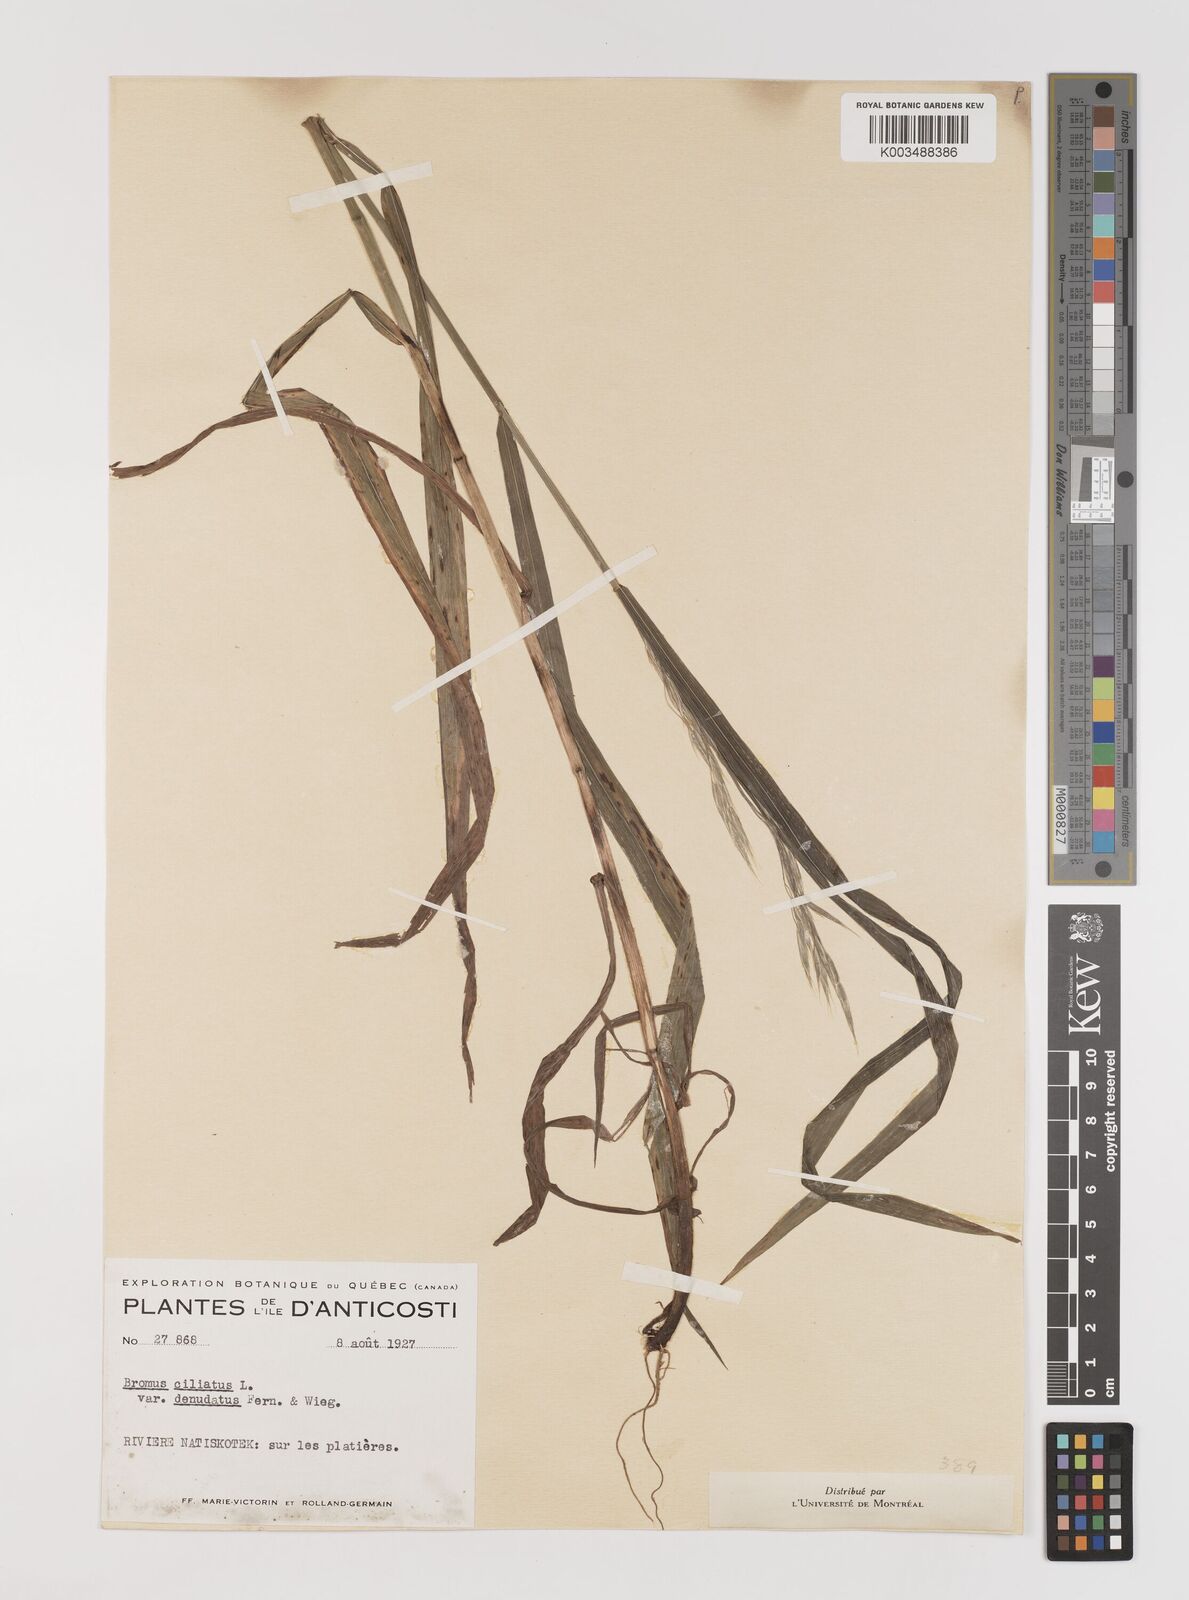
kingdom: Plantae
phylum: Tracheophyta
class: Liliopsida
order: Poales
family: Poaceae
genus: Bromus
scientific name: Bromus ciliatus
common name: Fringe brome
